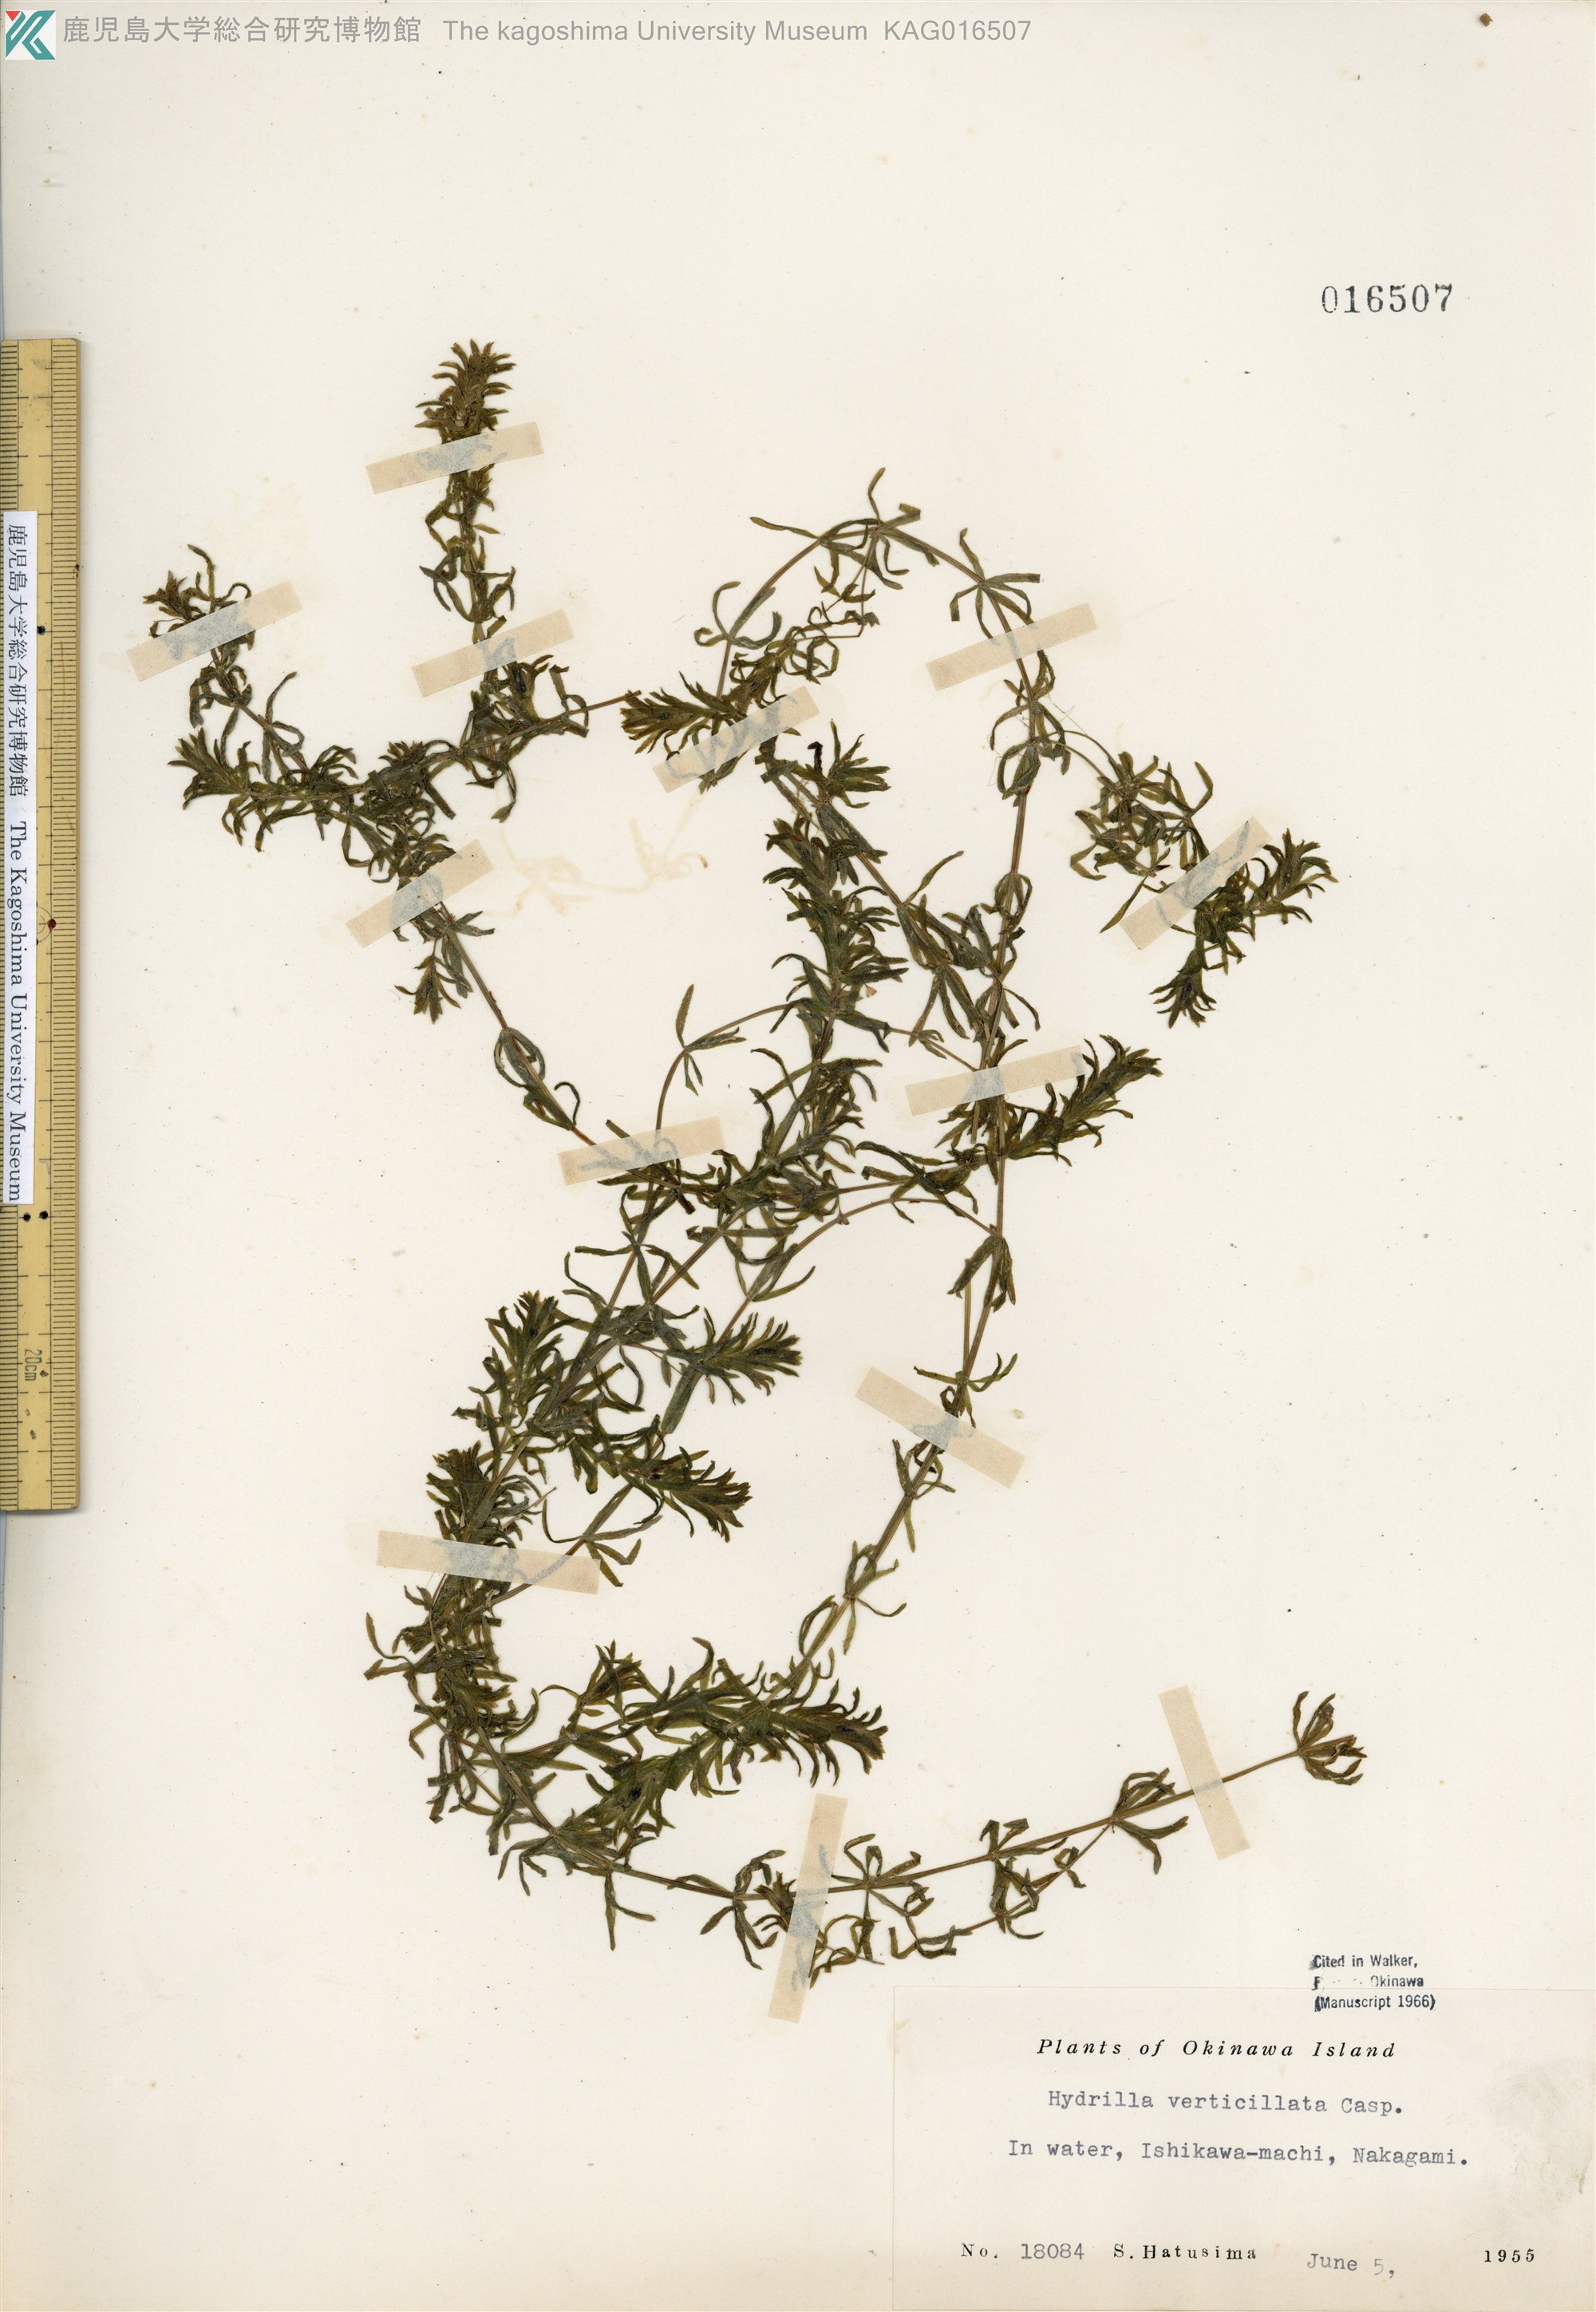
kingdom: Plantae
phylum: Tracheophyta
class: Liliopsida
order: Alismatales
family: Hydrocharitaceae
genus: Hydrilla
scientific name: Hydrilla verticillata
